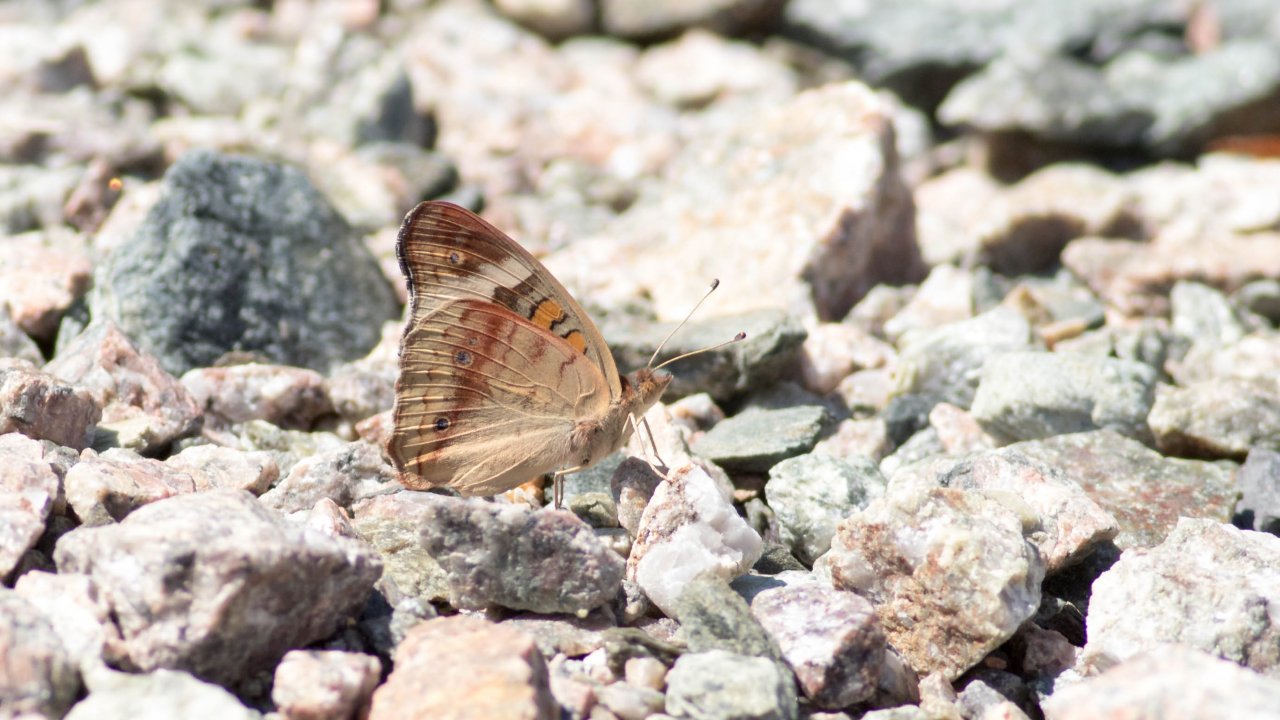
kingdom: Animalia
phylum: Arthropoda
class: Insecta
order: Lepidoptera
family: Nymphalidae
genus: Junonia
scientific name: Junonia coenia
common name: Common Buckeye
